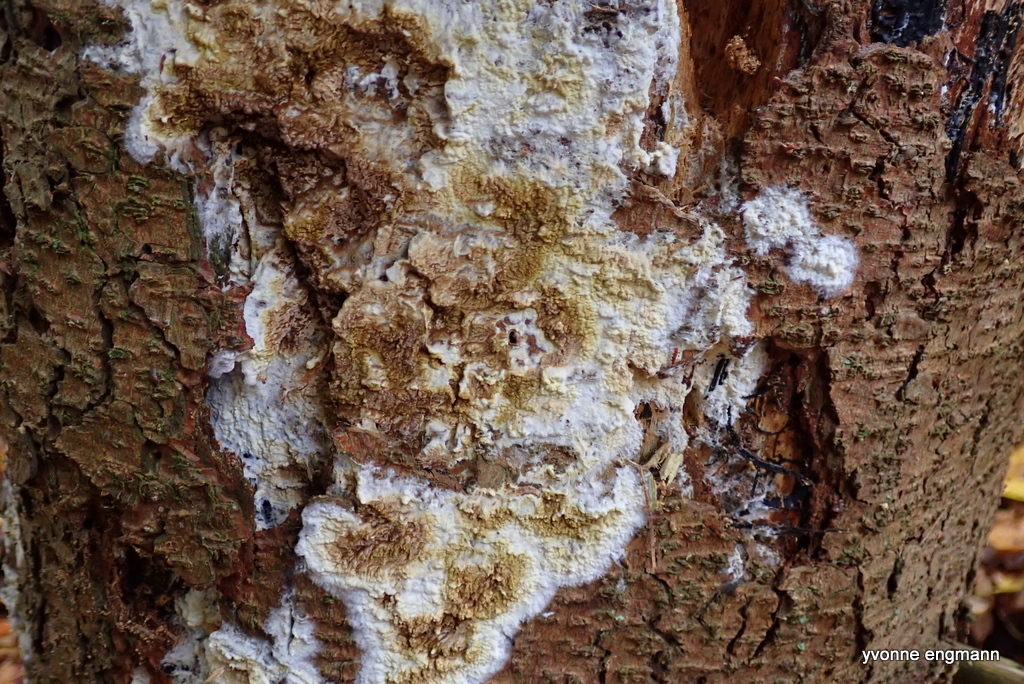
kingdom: Fungi
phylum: Basidiomycota
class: Agaricomycetes
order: Boletales
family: Coniophoraceae
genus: Coniophora
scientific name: Coniophora puteana
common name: gul tømmersvamp
